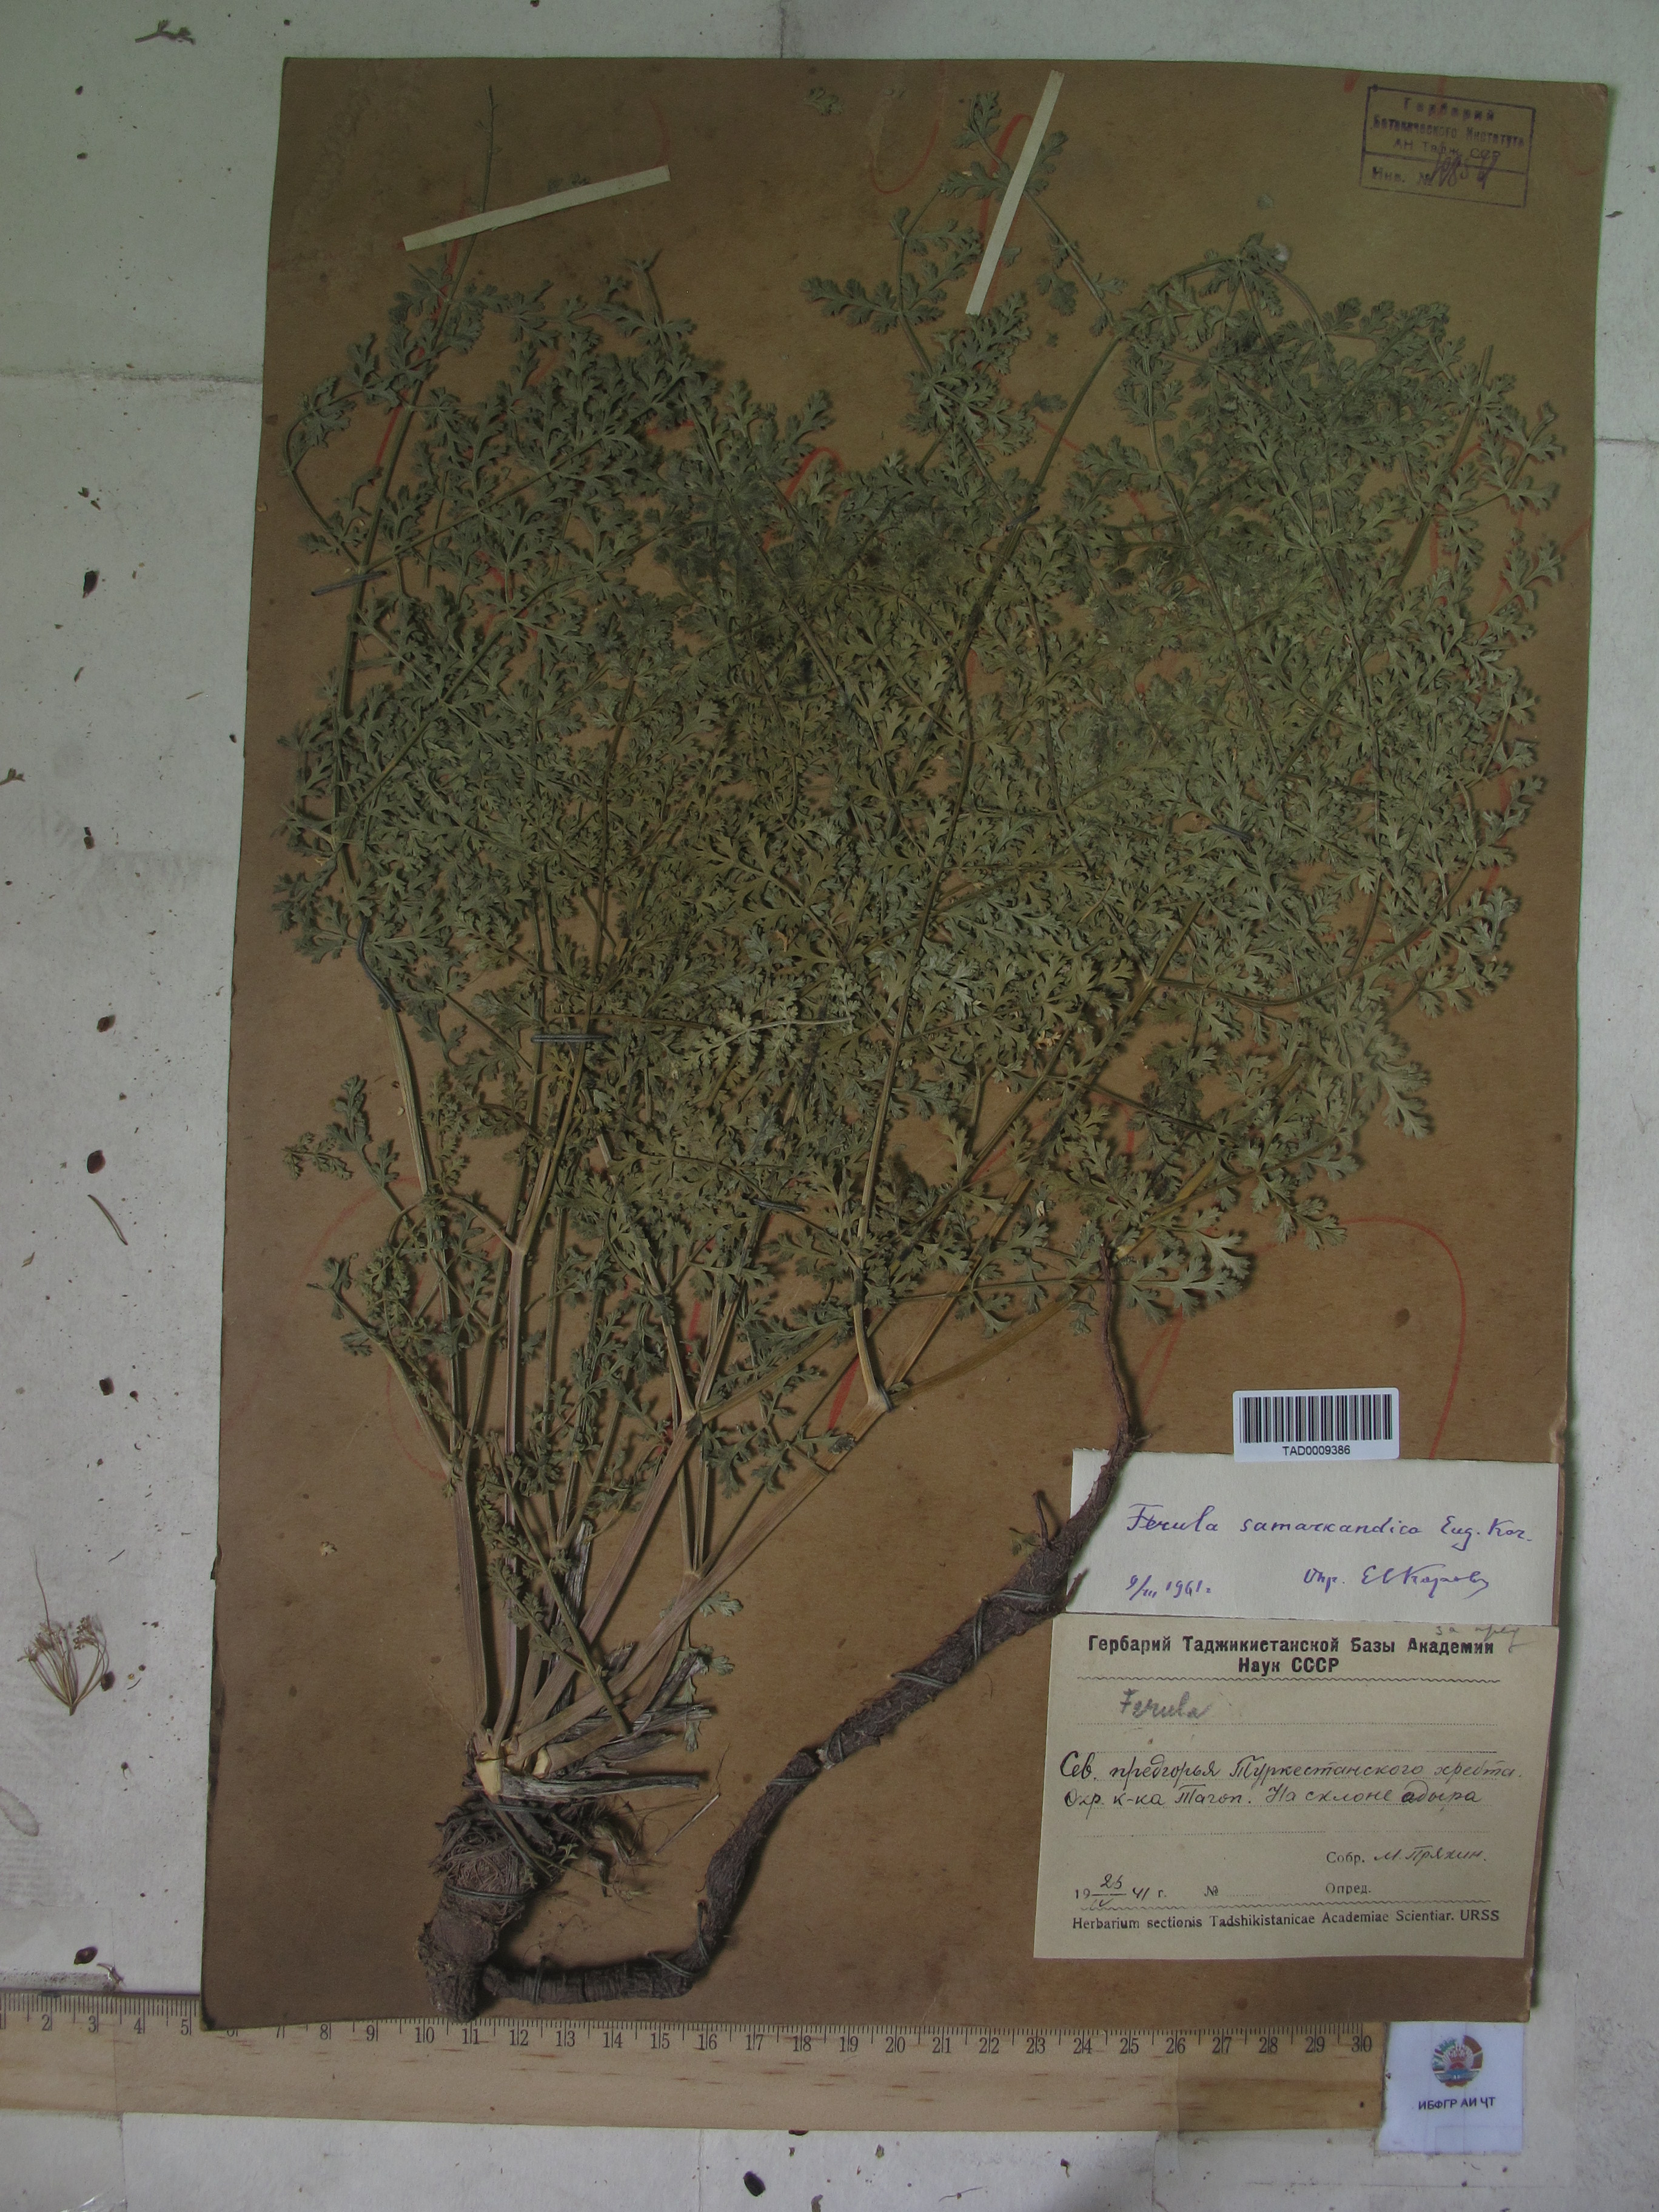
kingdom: Plantae
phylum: Tracheophyta
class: Magnoliopsida
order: Apiales
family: Apiaceae
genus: Ferula
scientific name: Ferula samarkandica
